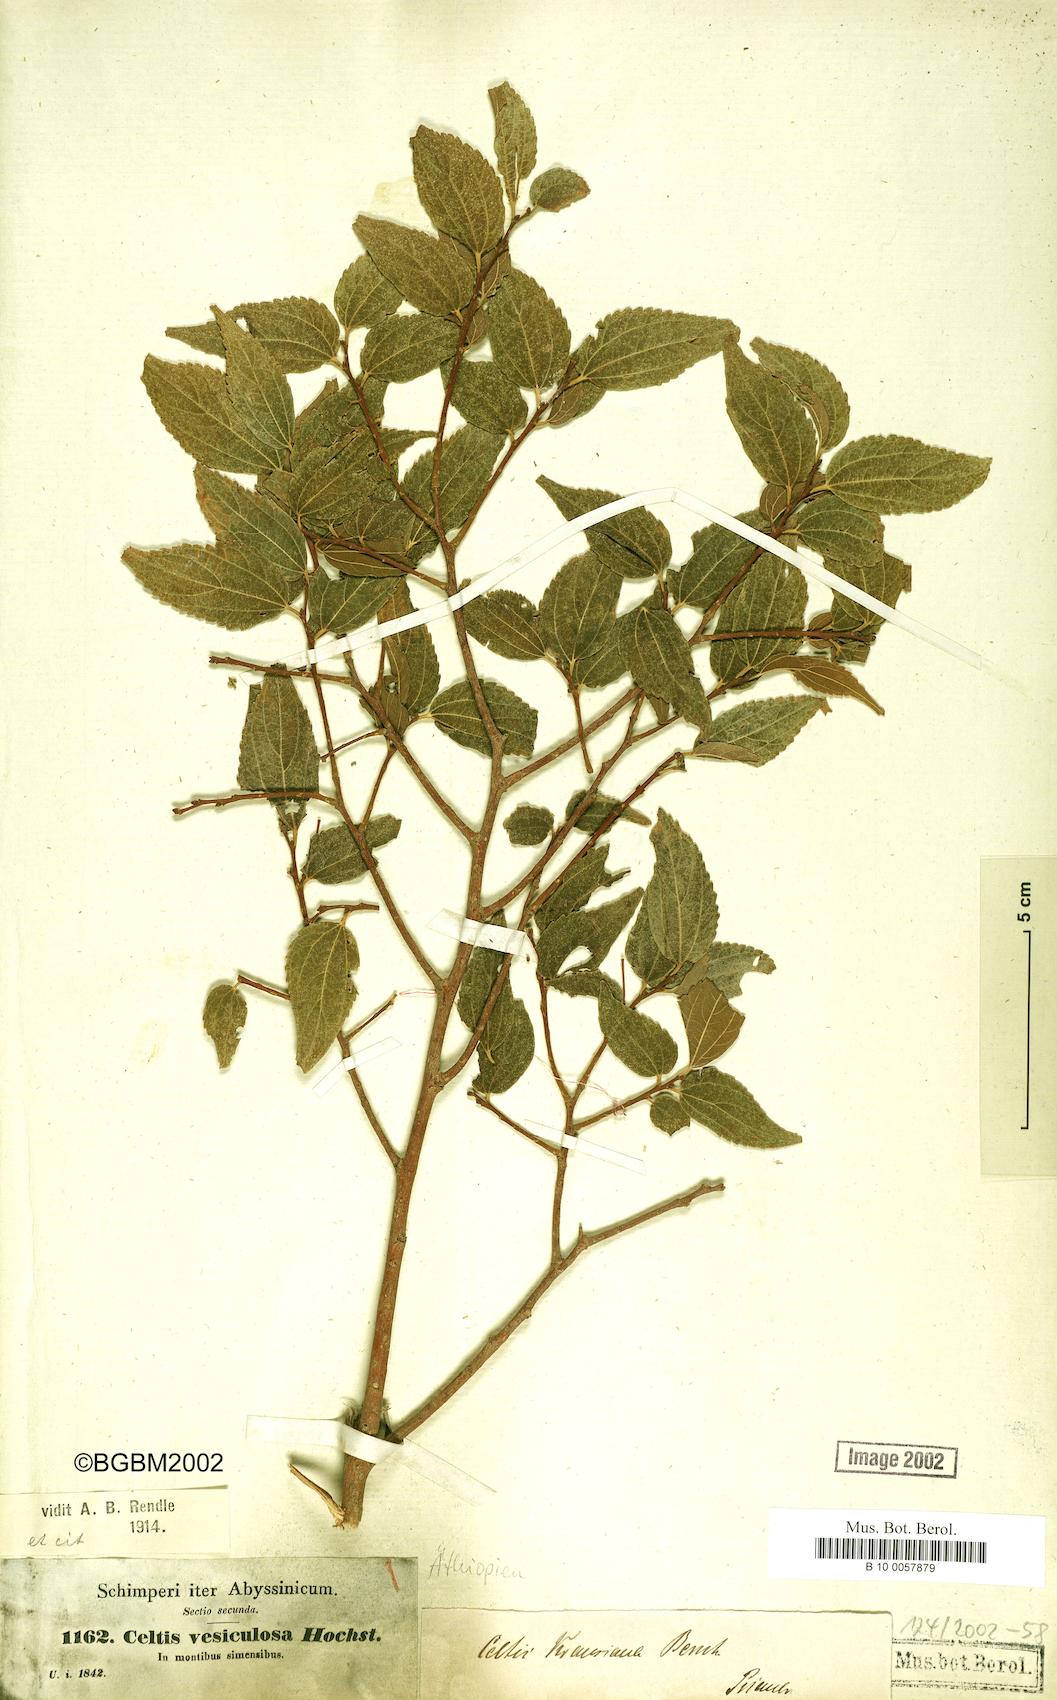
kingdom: Plantae
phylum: Tracheophyta
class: Magnoliopsida
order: Rosales
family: Cannabaceae
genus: Celtis
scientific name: Celtis africana
